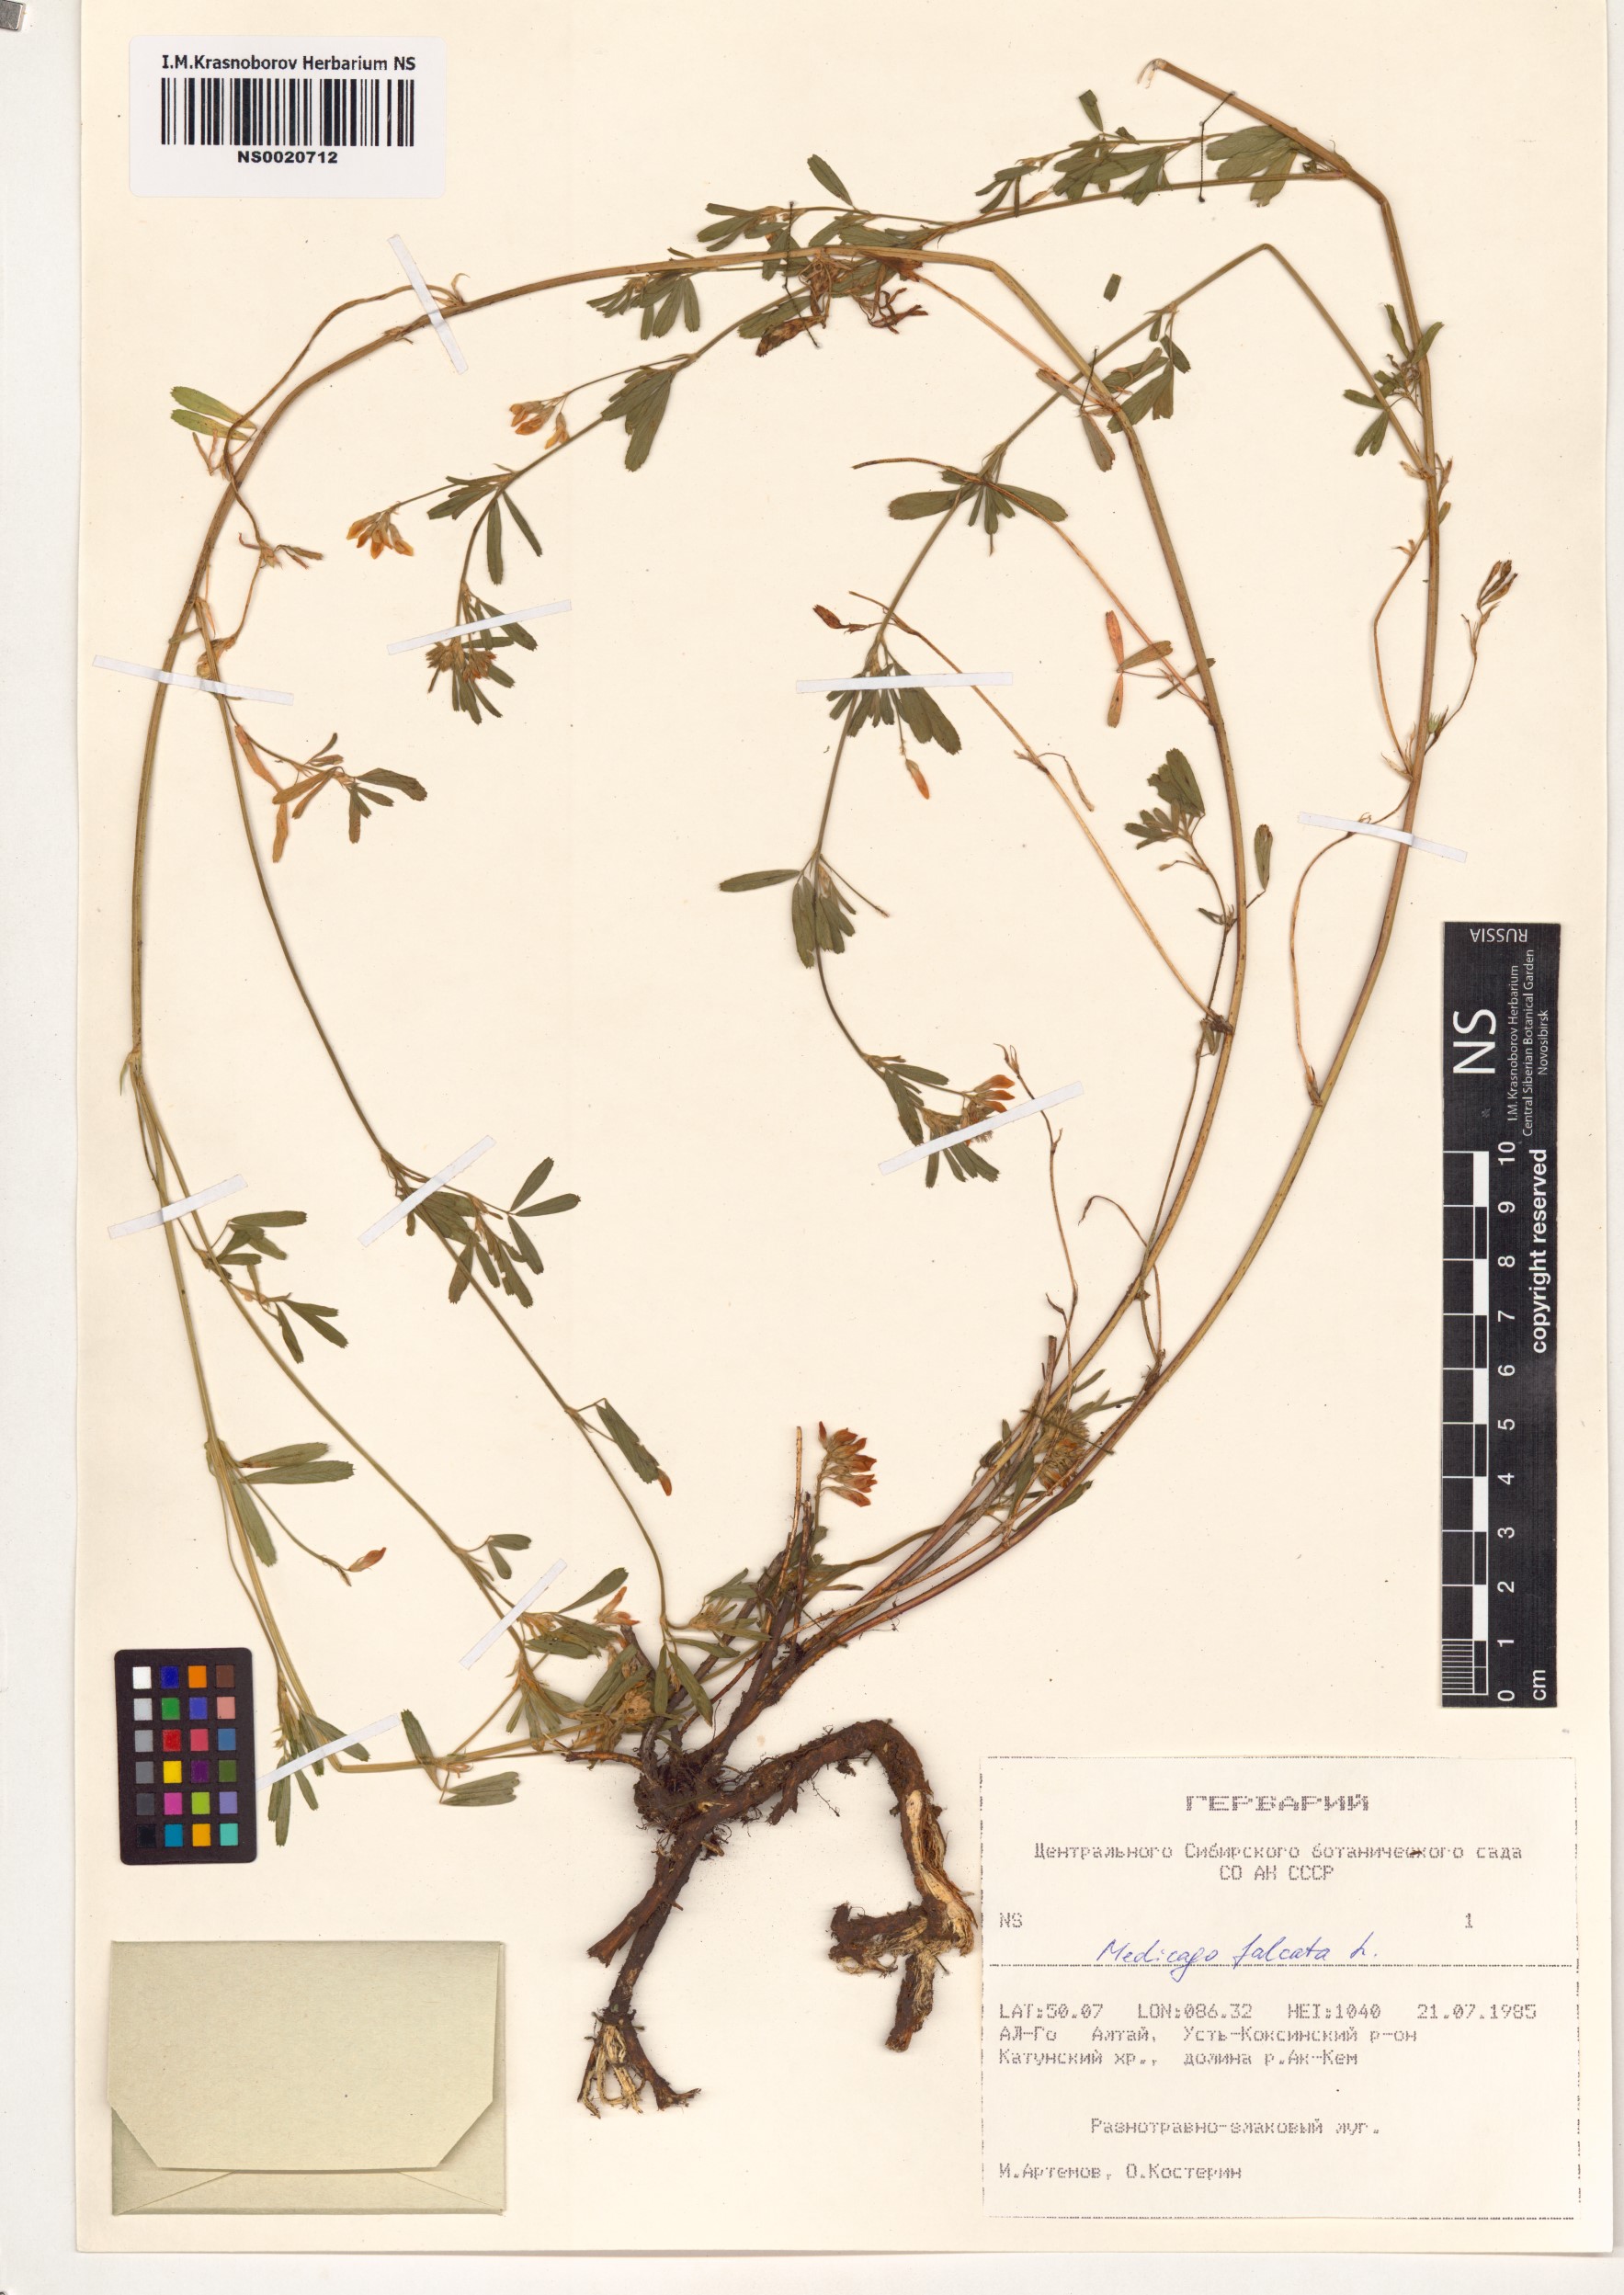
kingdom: Plantae
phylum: Tracheophyta
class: Magnoliopsida
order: Fabales
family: Fabaceae
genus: Medicago
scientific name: Medicago falcata
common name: Sickle medick
